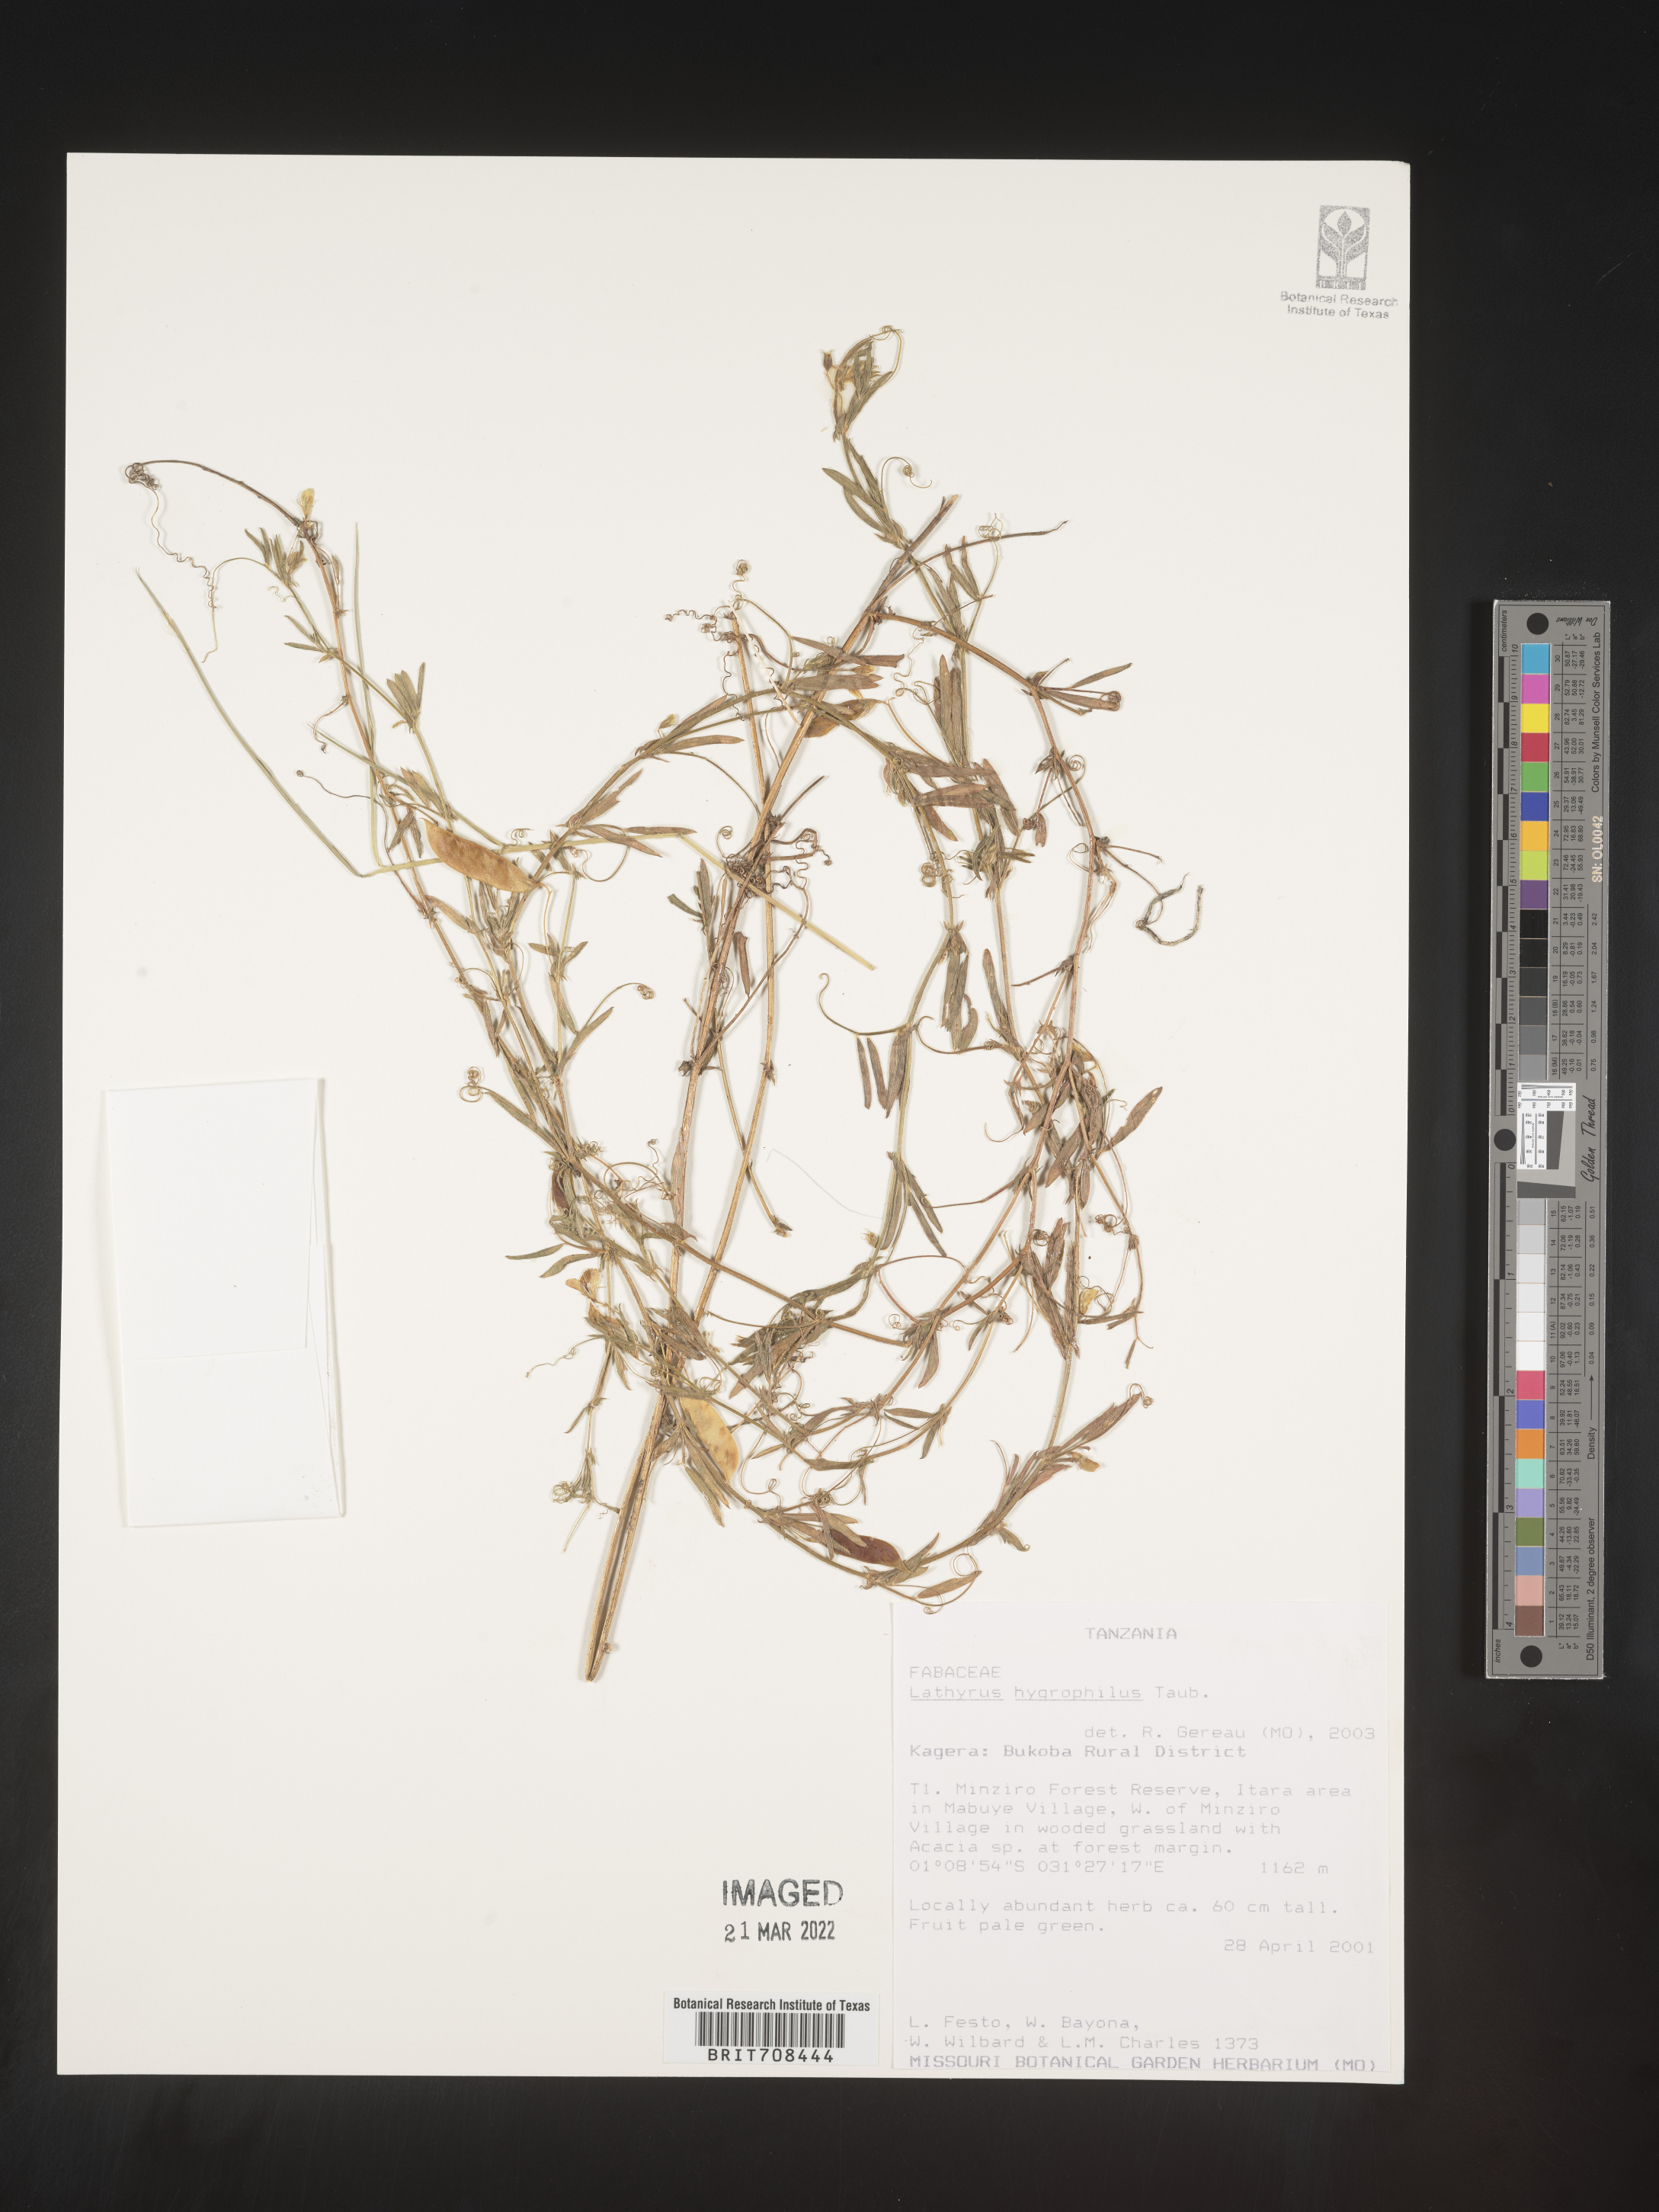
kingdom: Plantae
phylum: Tracheophyta
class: Magnoliopsida
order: Fabales
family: Fabaceae
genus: Lathyrus
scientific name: Lathyrus
